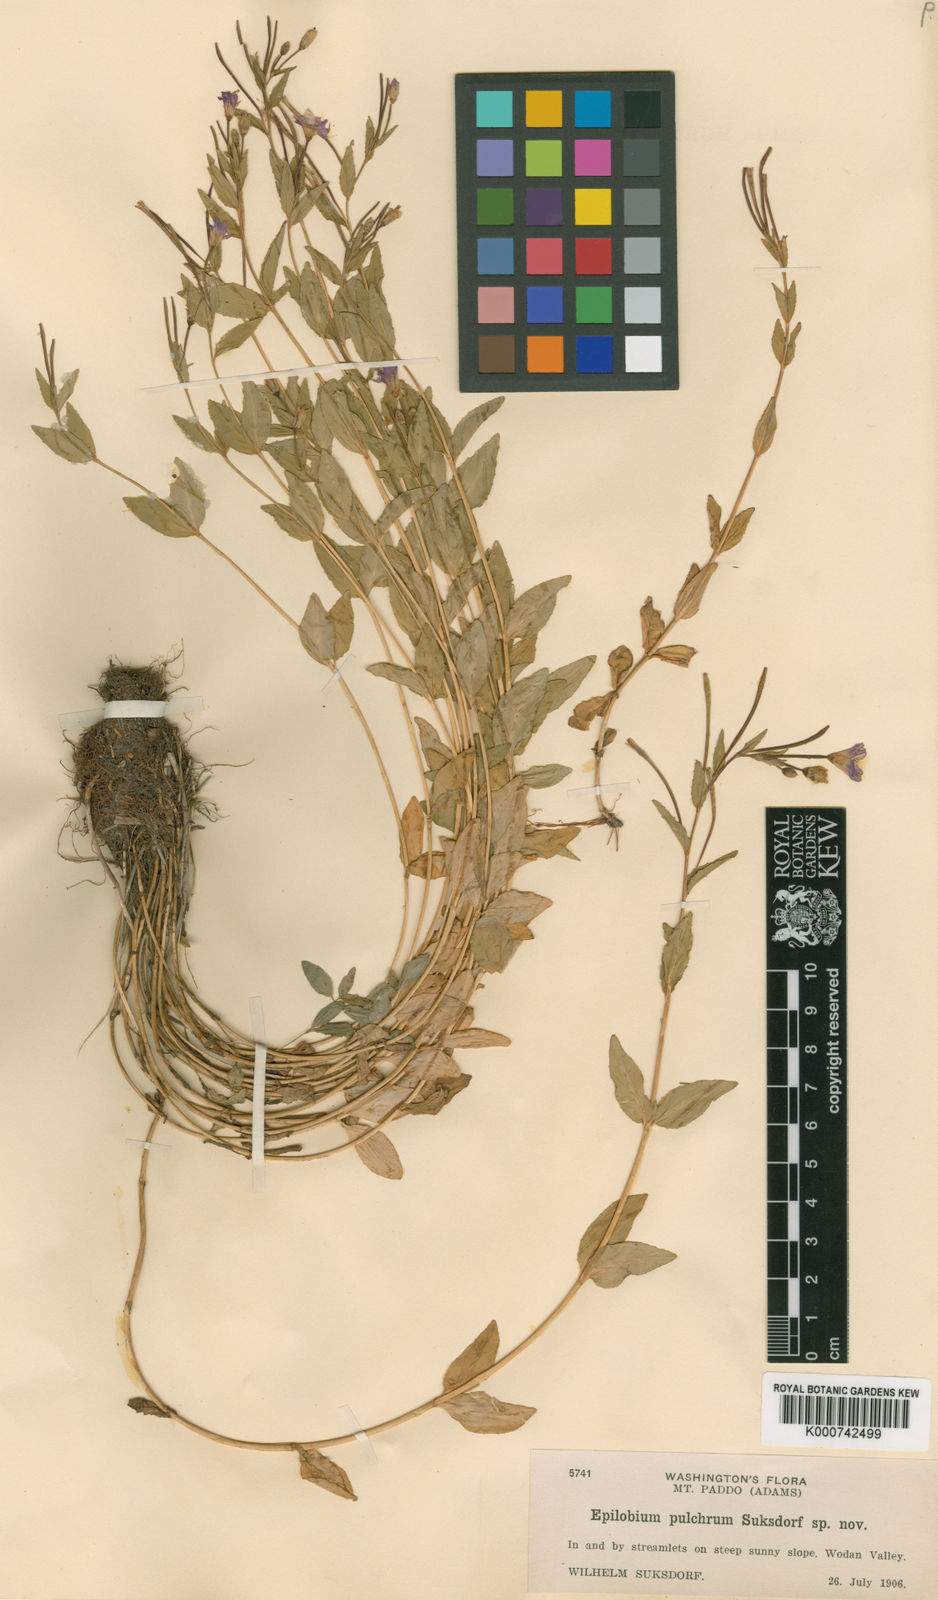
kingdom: Plantae
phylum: Tracheophyta
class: Magnoliopsida
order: Myrtales
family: Onagraceae
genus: Epilobium
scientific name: Epilobium pulchrum
